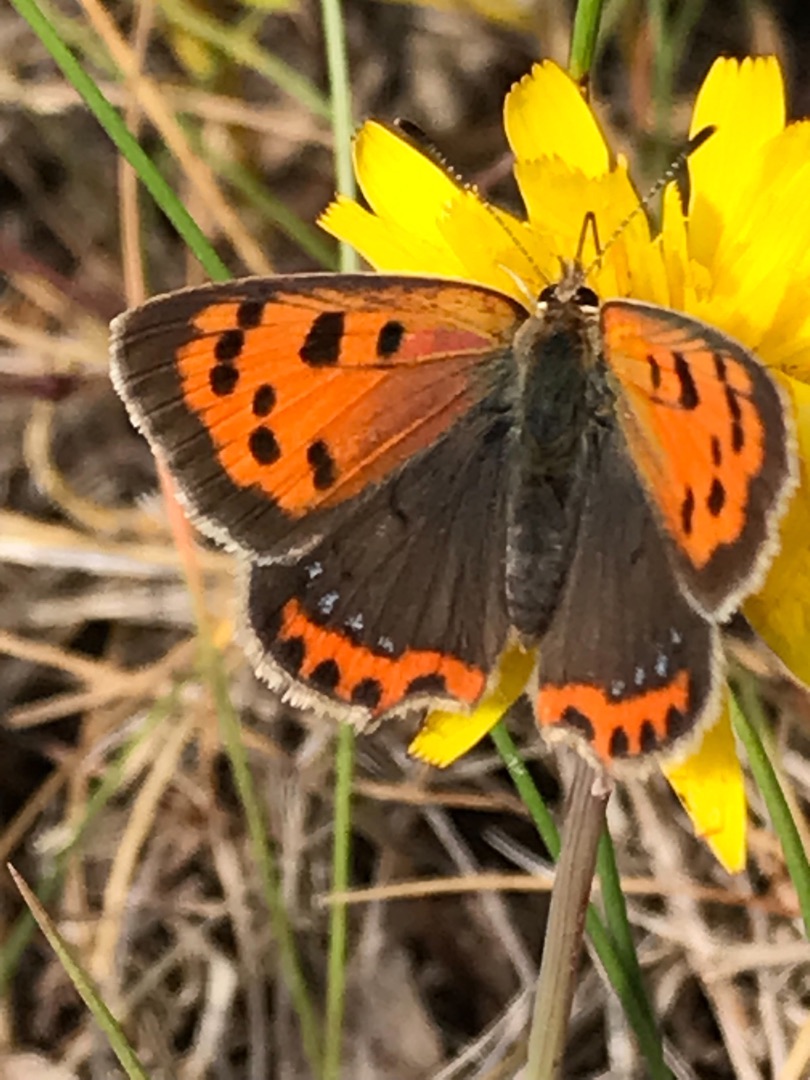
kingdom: Animalia
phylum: Arthropoda
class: Insecta
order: Lepidoptera
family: Lycaenidae
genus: Lycaena
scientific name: Lycaena phlaeas
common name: Lille ildfugl
